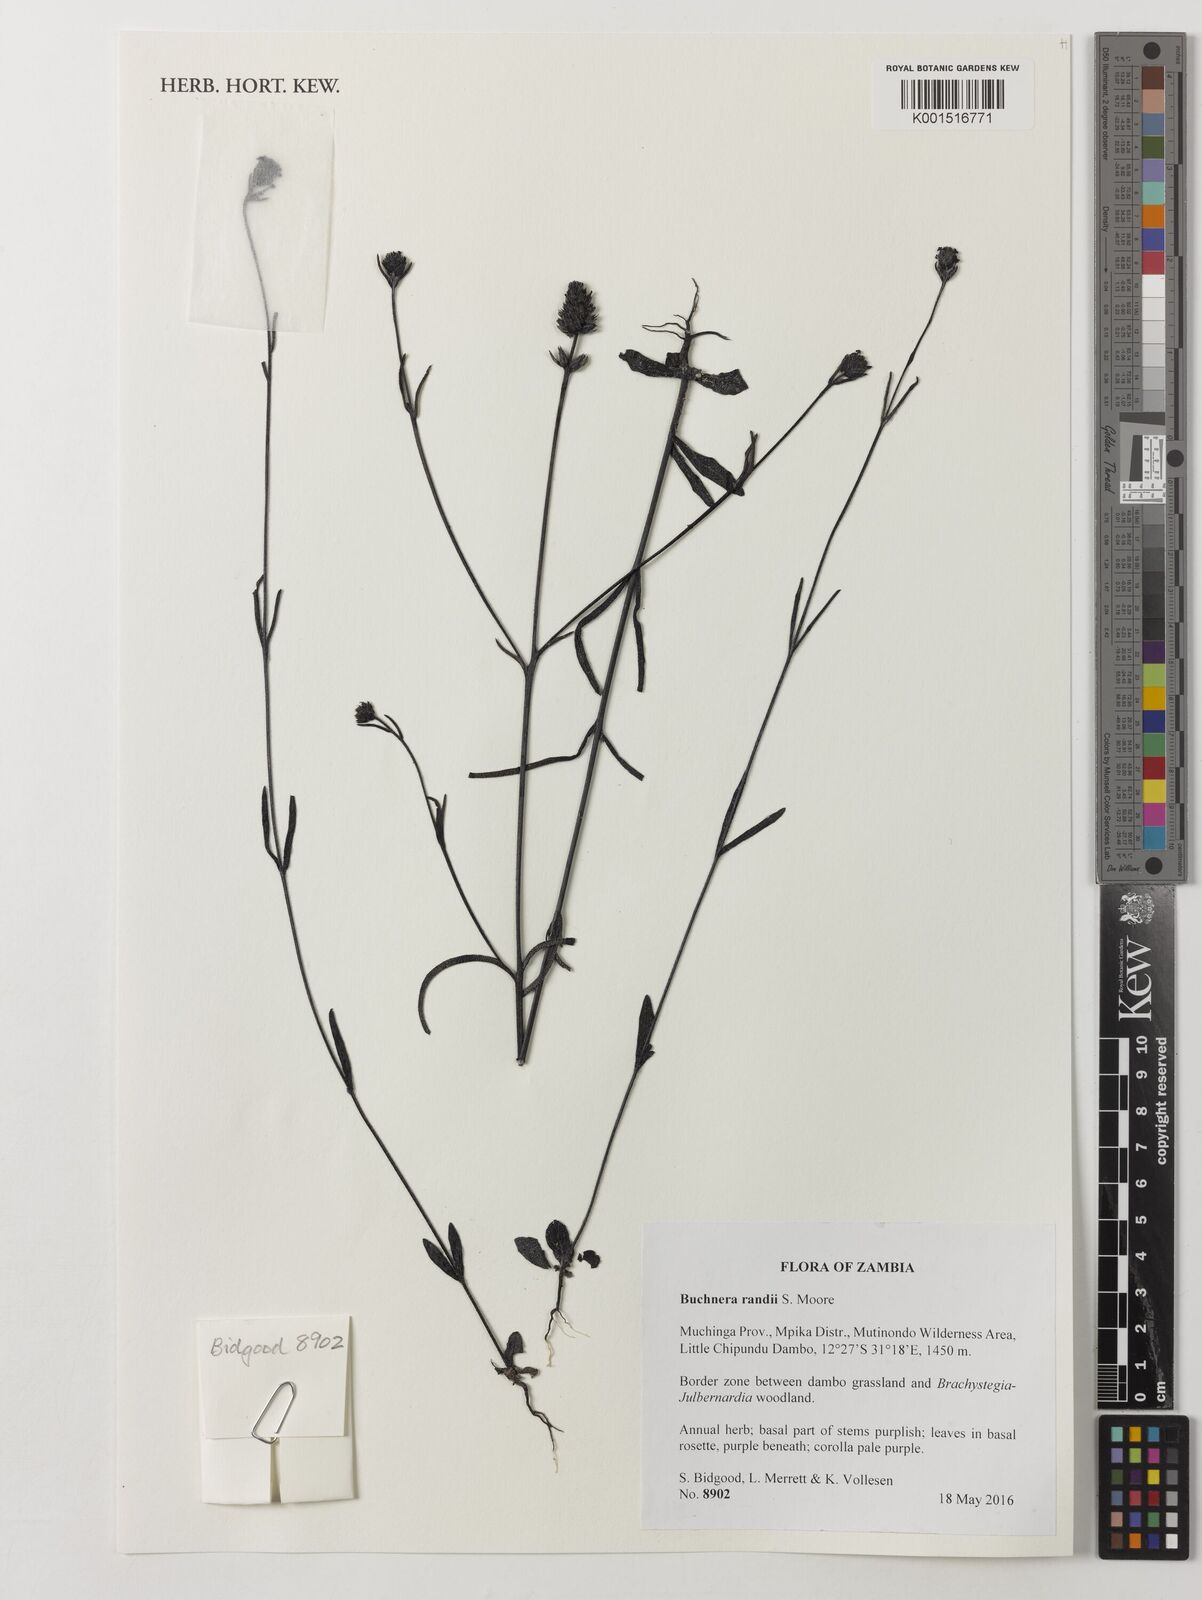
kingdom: Plantae
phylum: Tracheophyta
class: Magnoliopsida
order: Lamiales
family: Orobanchaceae
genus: Buchnera
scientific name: Buchnera randii
